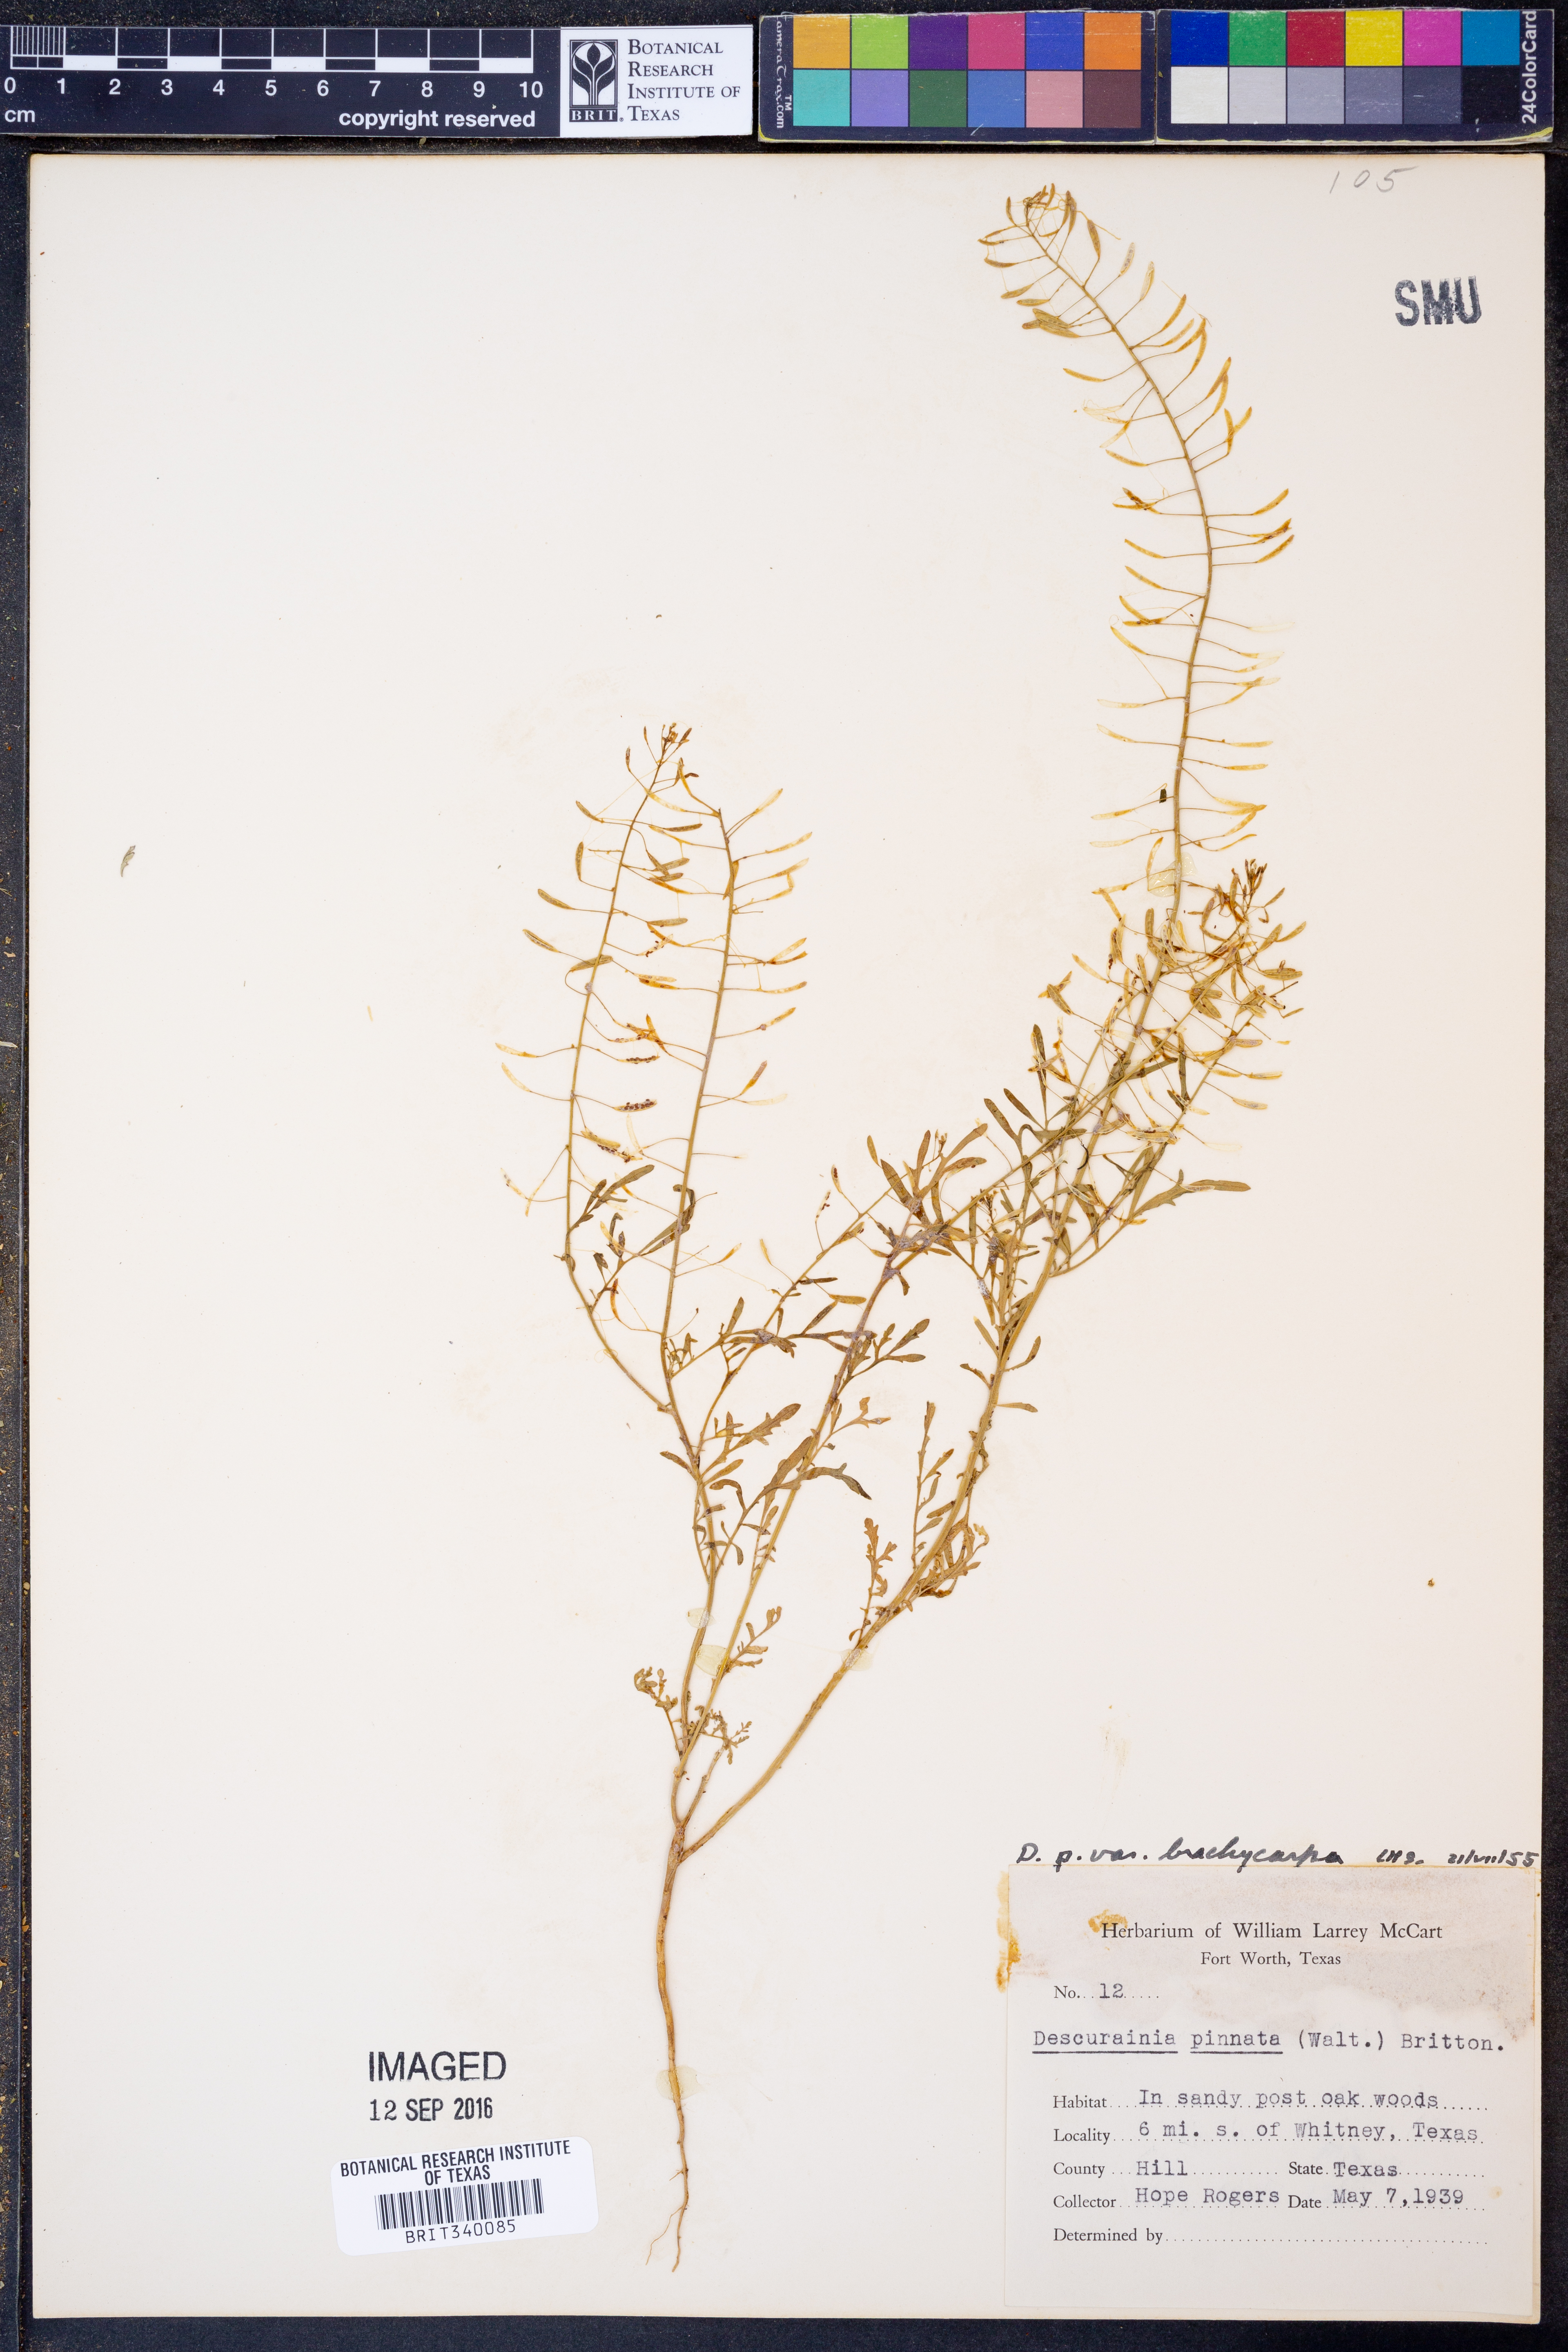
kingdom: Plantae
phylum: Tracheophyta
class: Magnoliopsida
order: Brassicales
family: Brassicaceae
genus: Descurainia
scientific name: Descurainia pinnata
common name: Western tansy mustard
